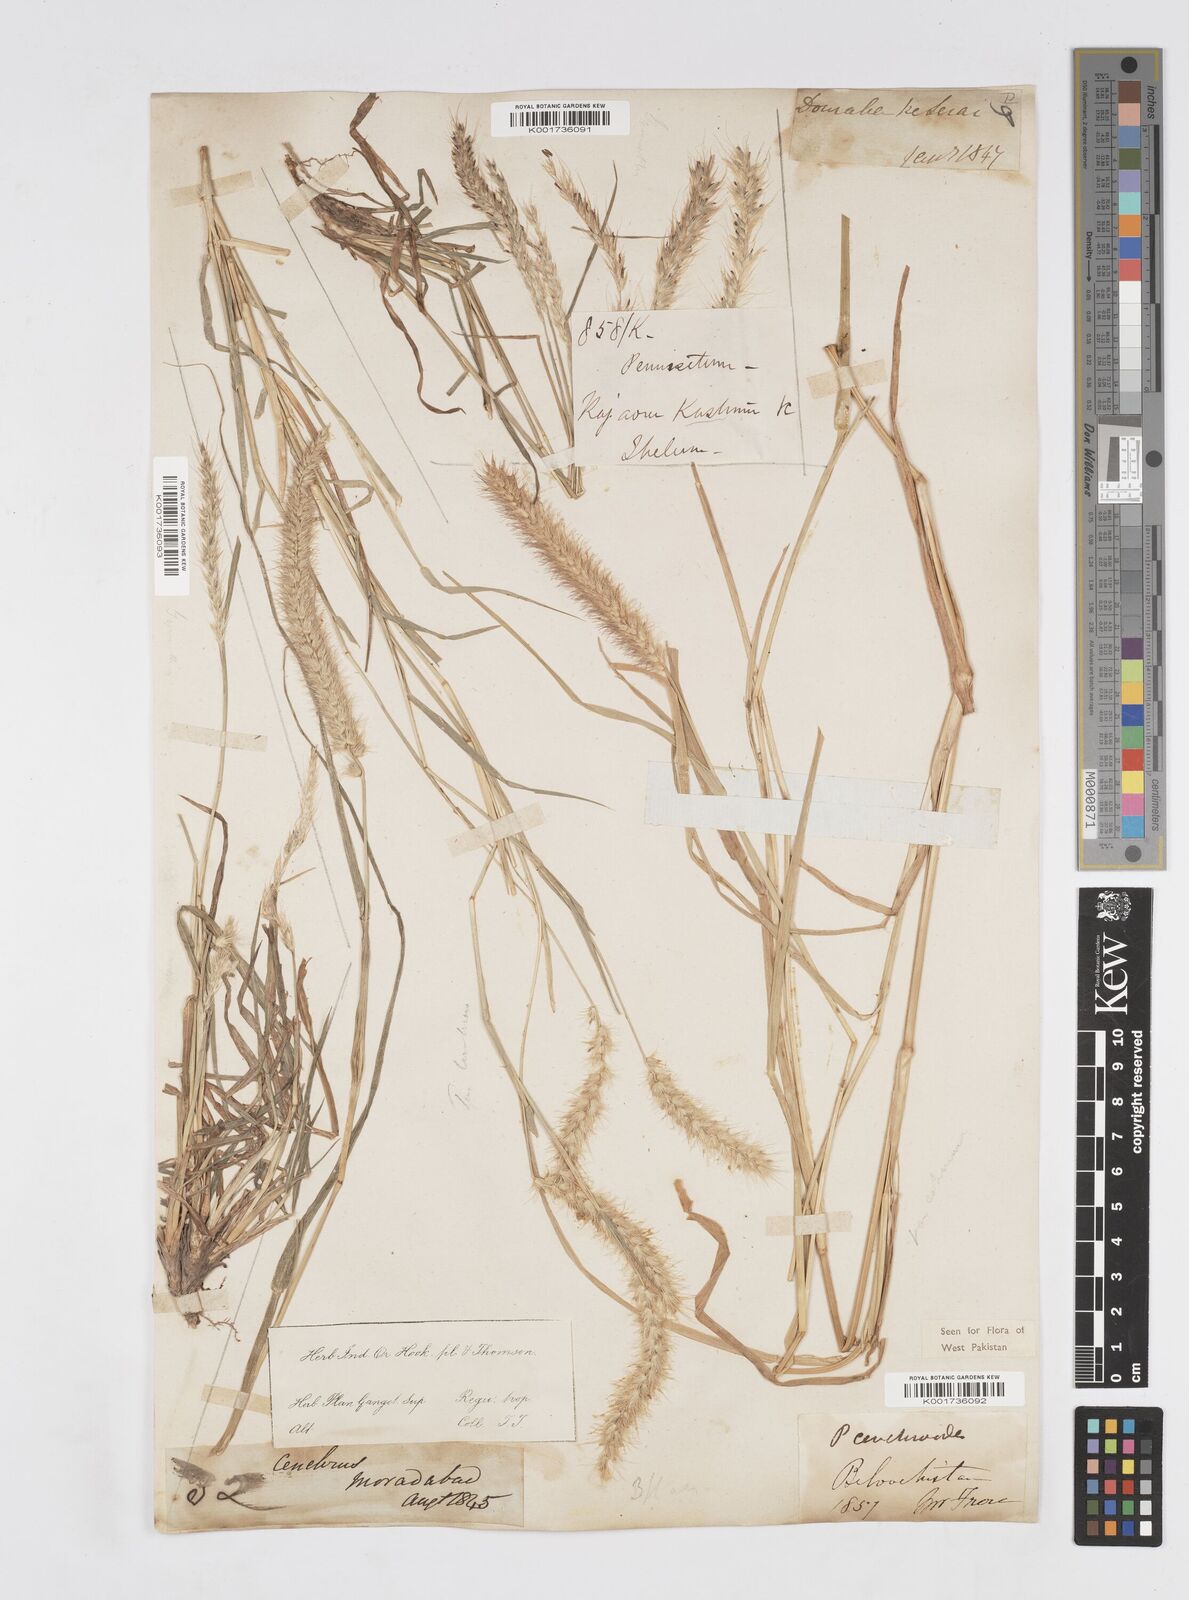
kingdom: Plantae
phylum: Tracheophyta
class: Liliopsida
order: Poales
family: Poaceae
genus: Cenchrus
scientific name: Cenchrus ciliaris
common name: Buffelgrass
